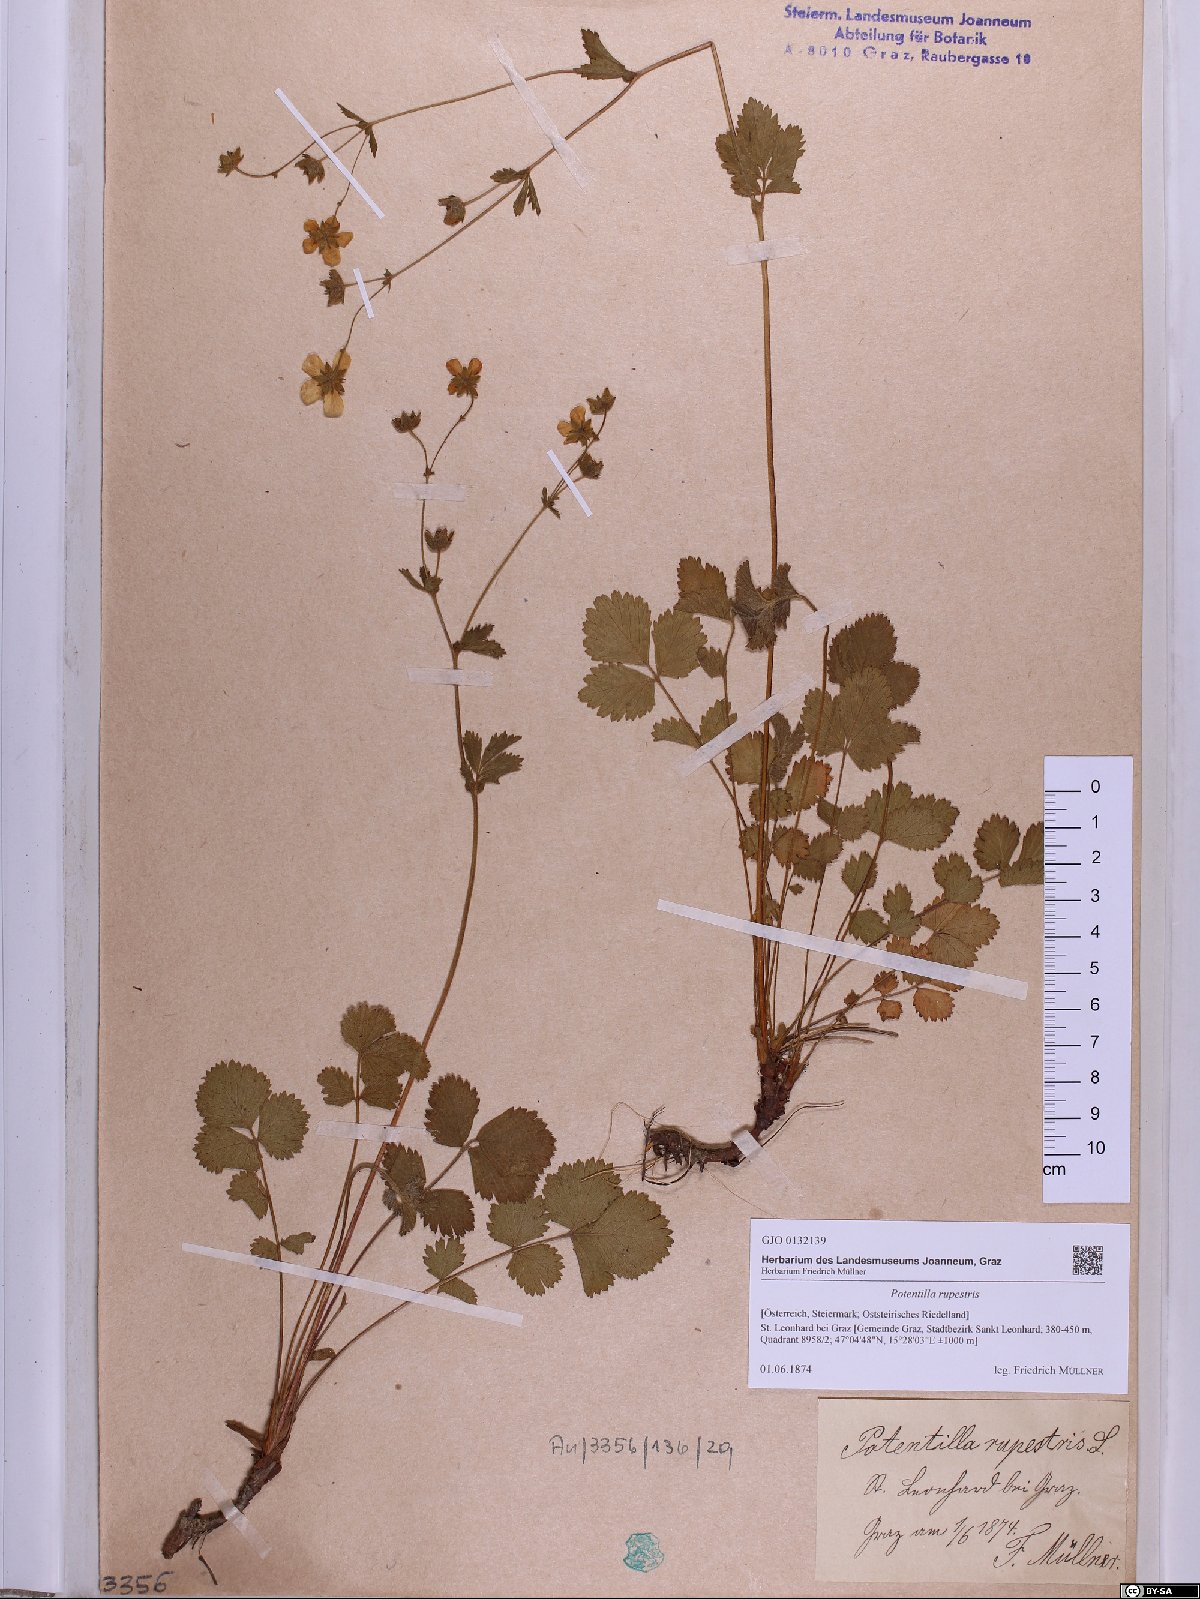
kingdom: Plantae
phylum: Tracheophyta
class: Magnoliopsida
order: Rosales
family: Rosaceae
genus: Drymocallis
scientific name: Drymocallis rupestris
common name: Rock cinquefoil
